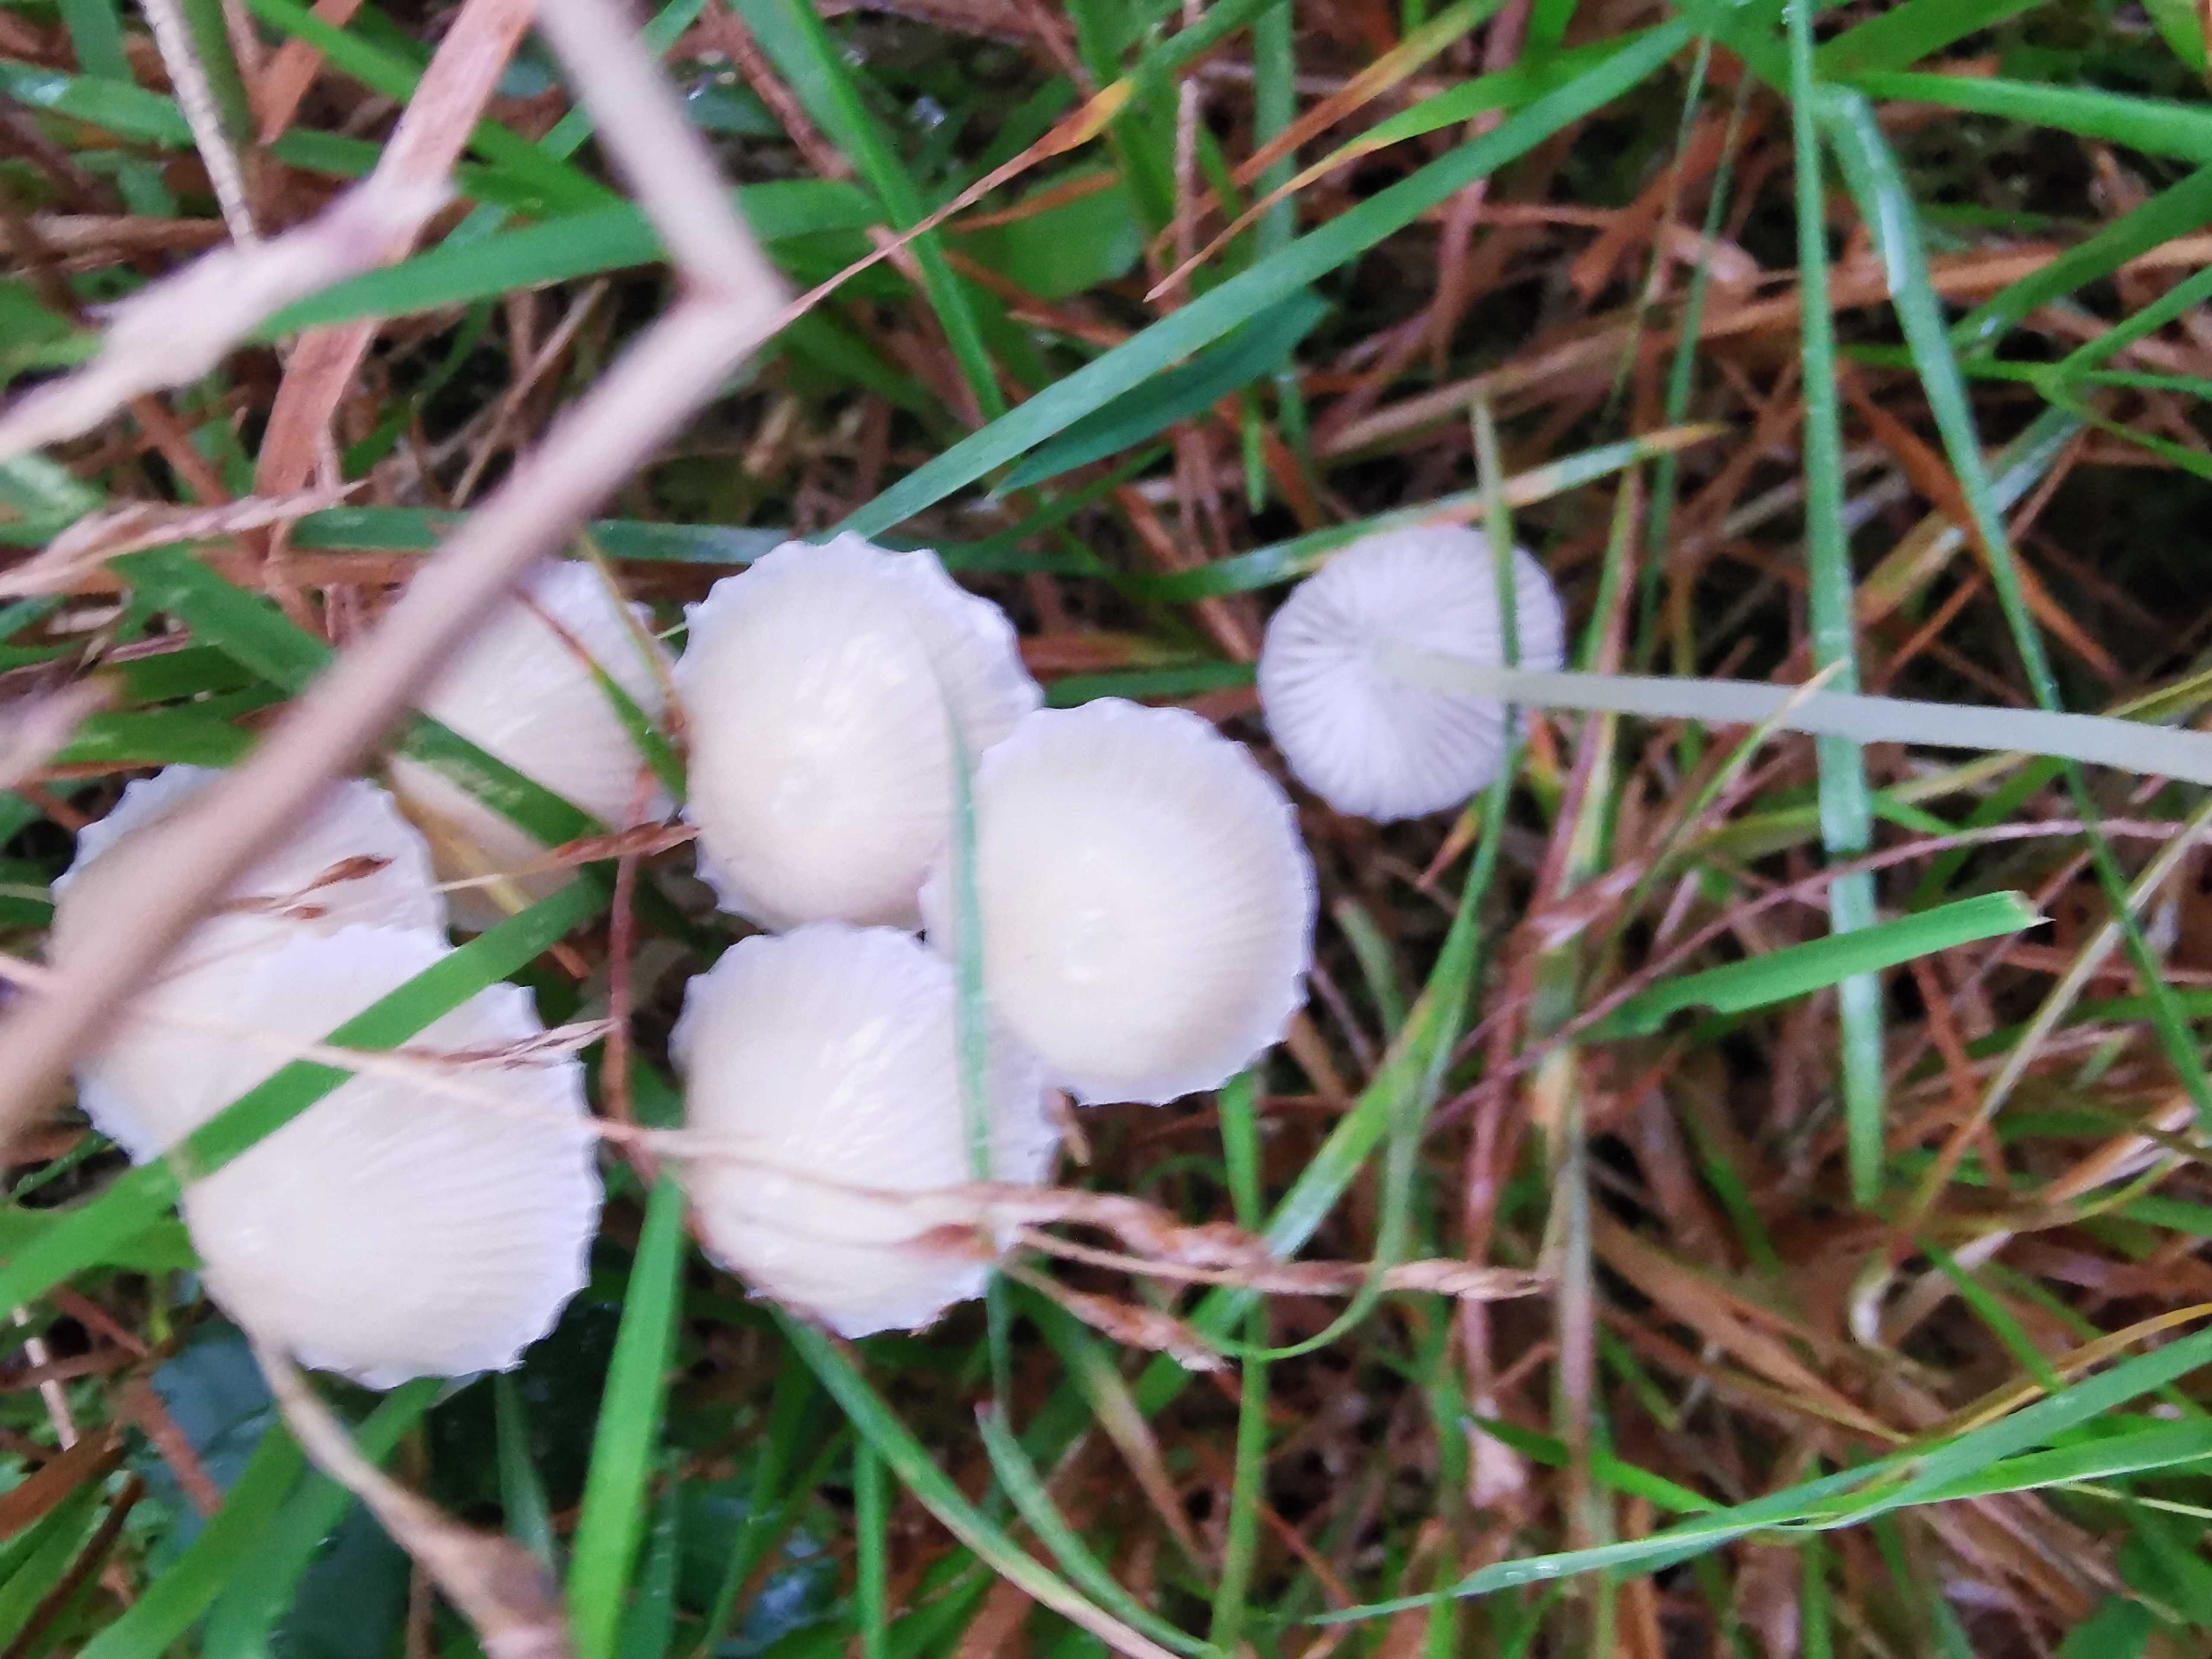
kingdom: Fungi
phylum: Basidiomycota
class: Agaricomycetes
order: Agaricales
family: Mycenaceae
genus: Mycena
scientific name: Mycena epipterygia
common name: gulstokket huesvamp
